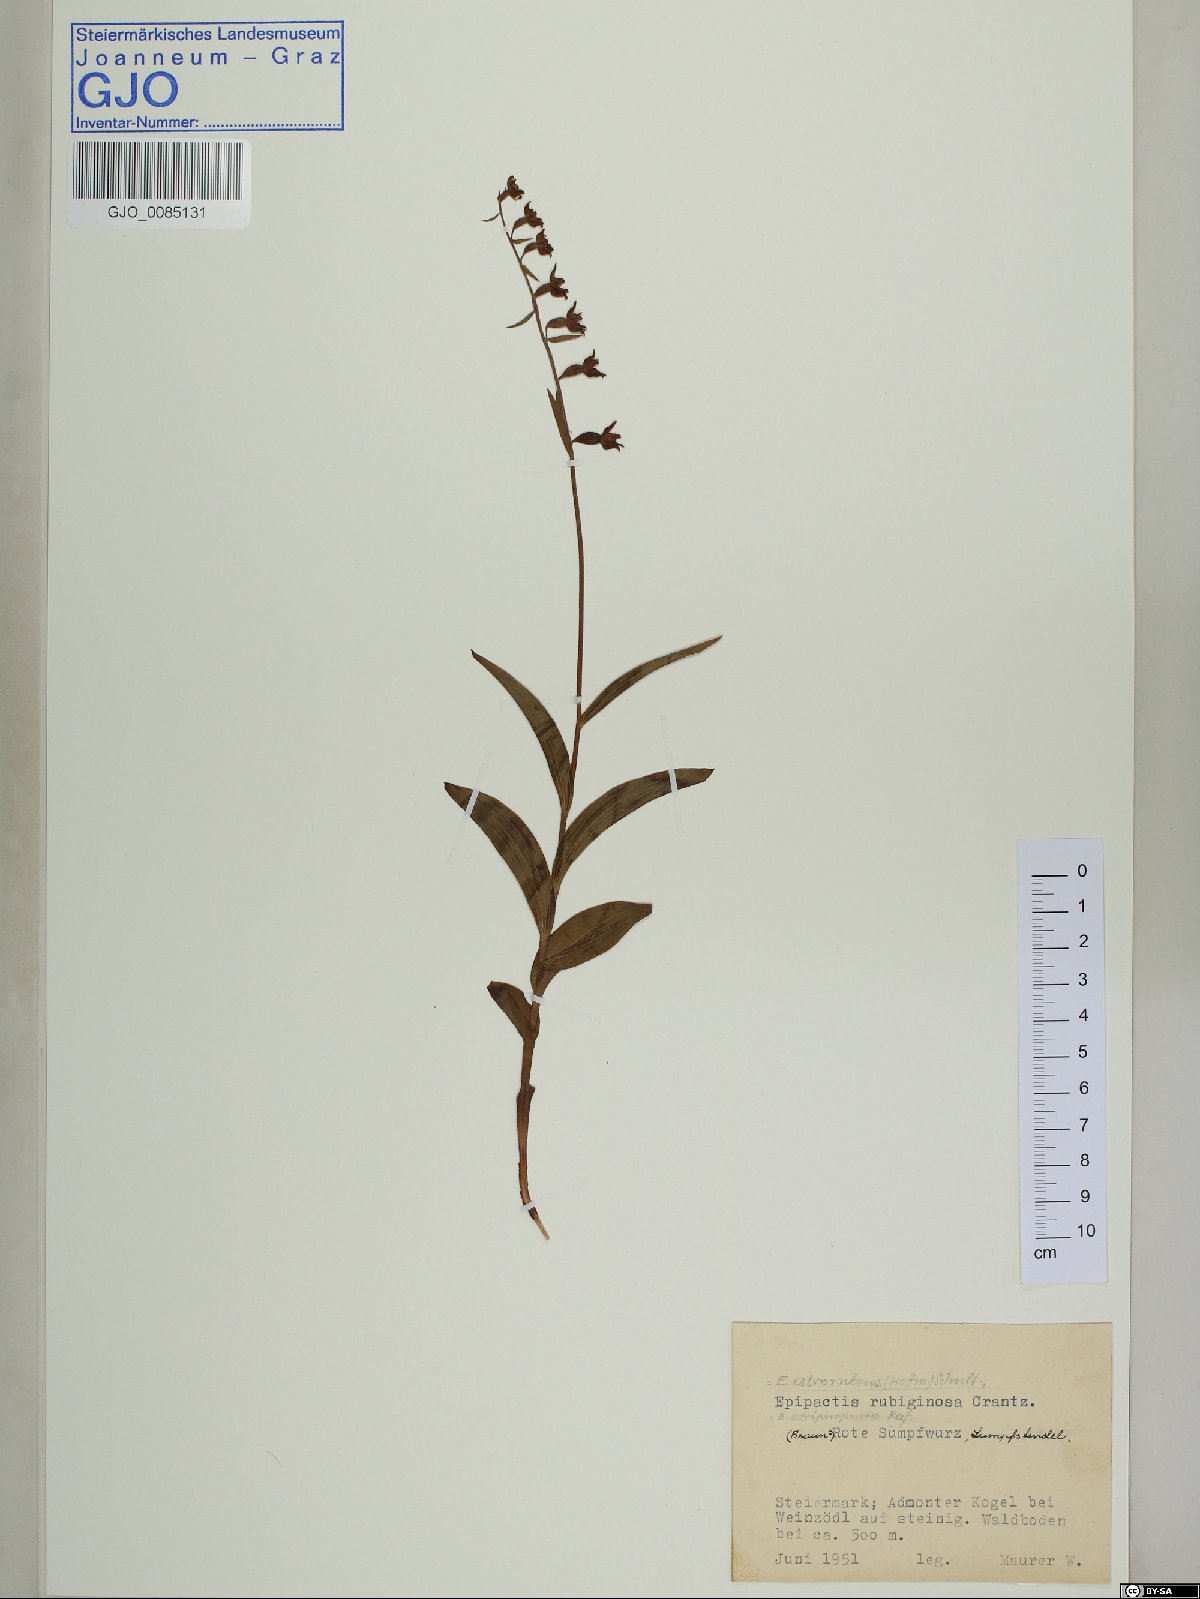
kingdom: Plantae
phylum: Tracheophyta
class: Liliopsida
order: Asparagales
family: Orchidaceae
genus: Epipactis
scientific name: Epipactis atrorubens
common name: Dark-red helleborine
